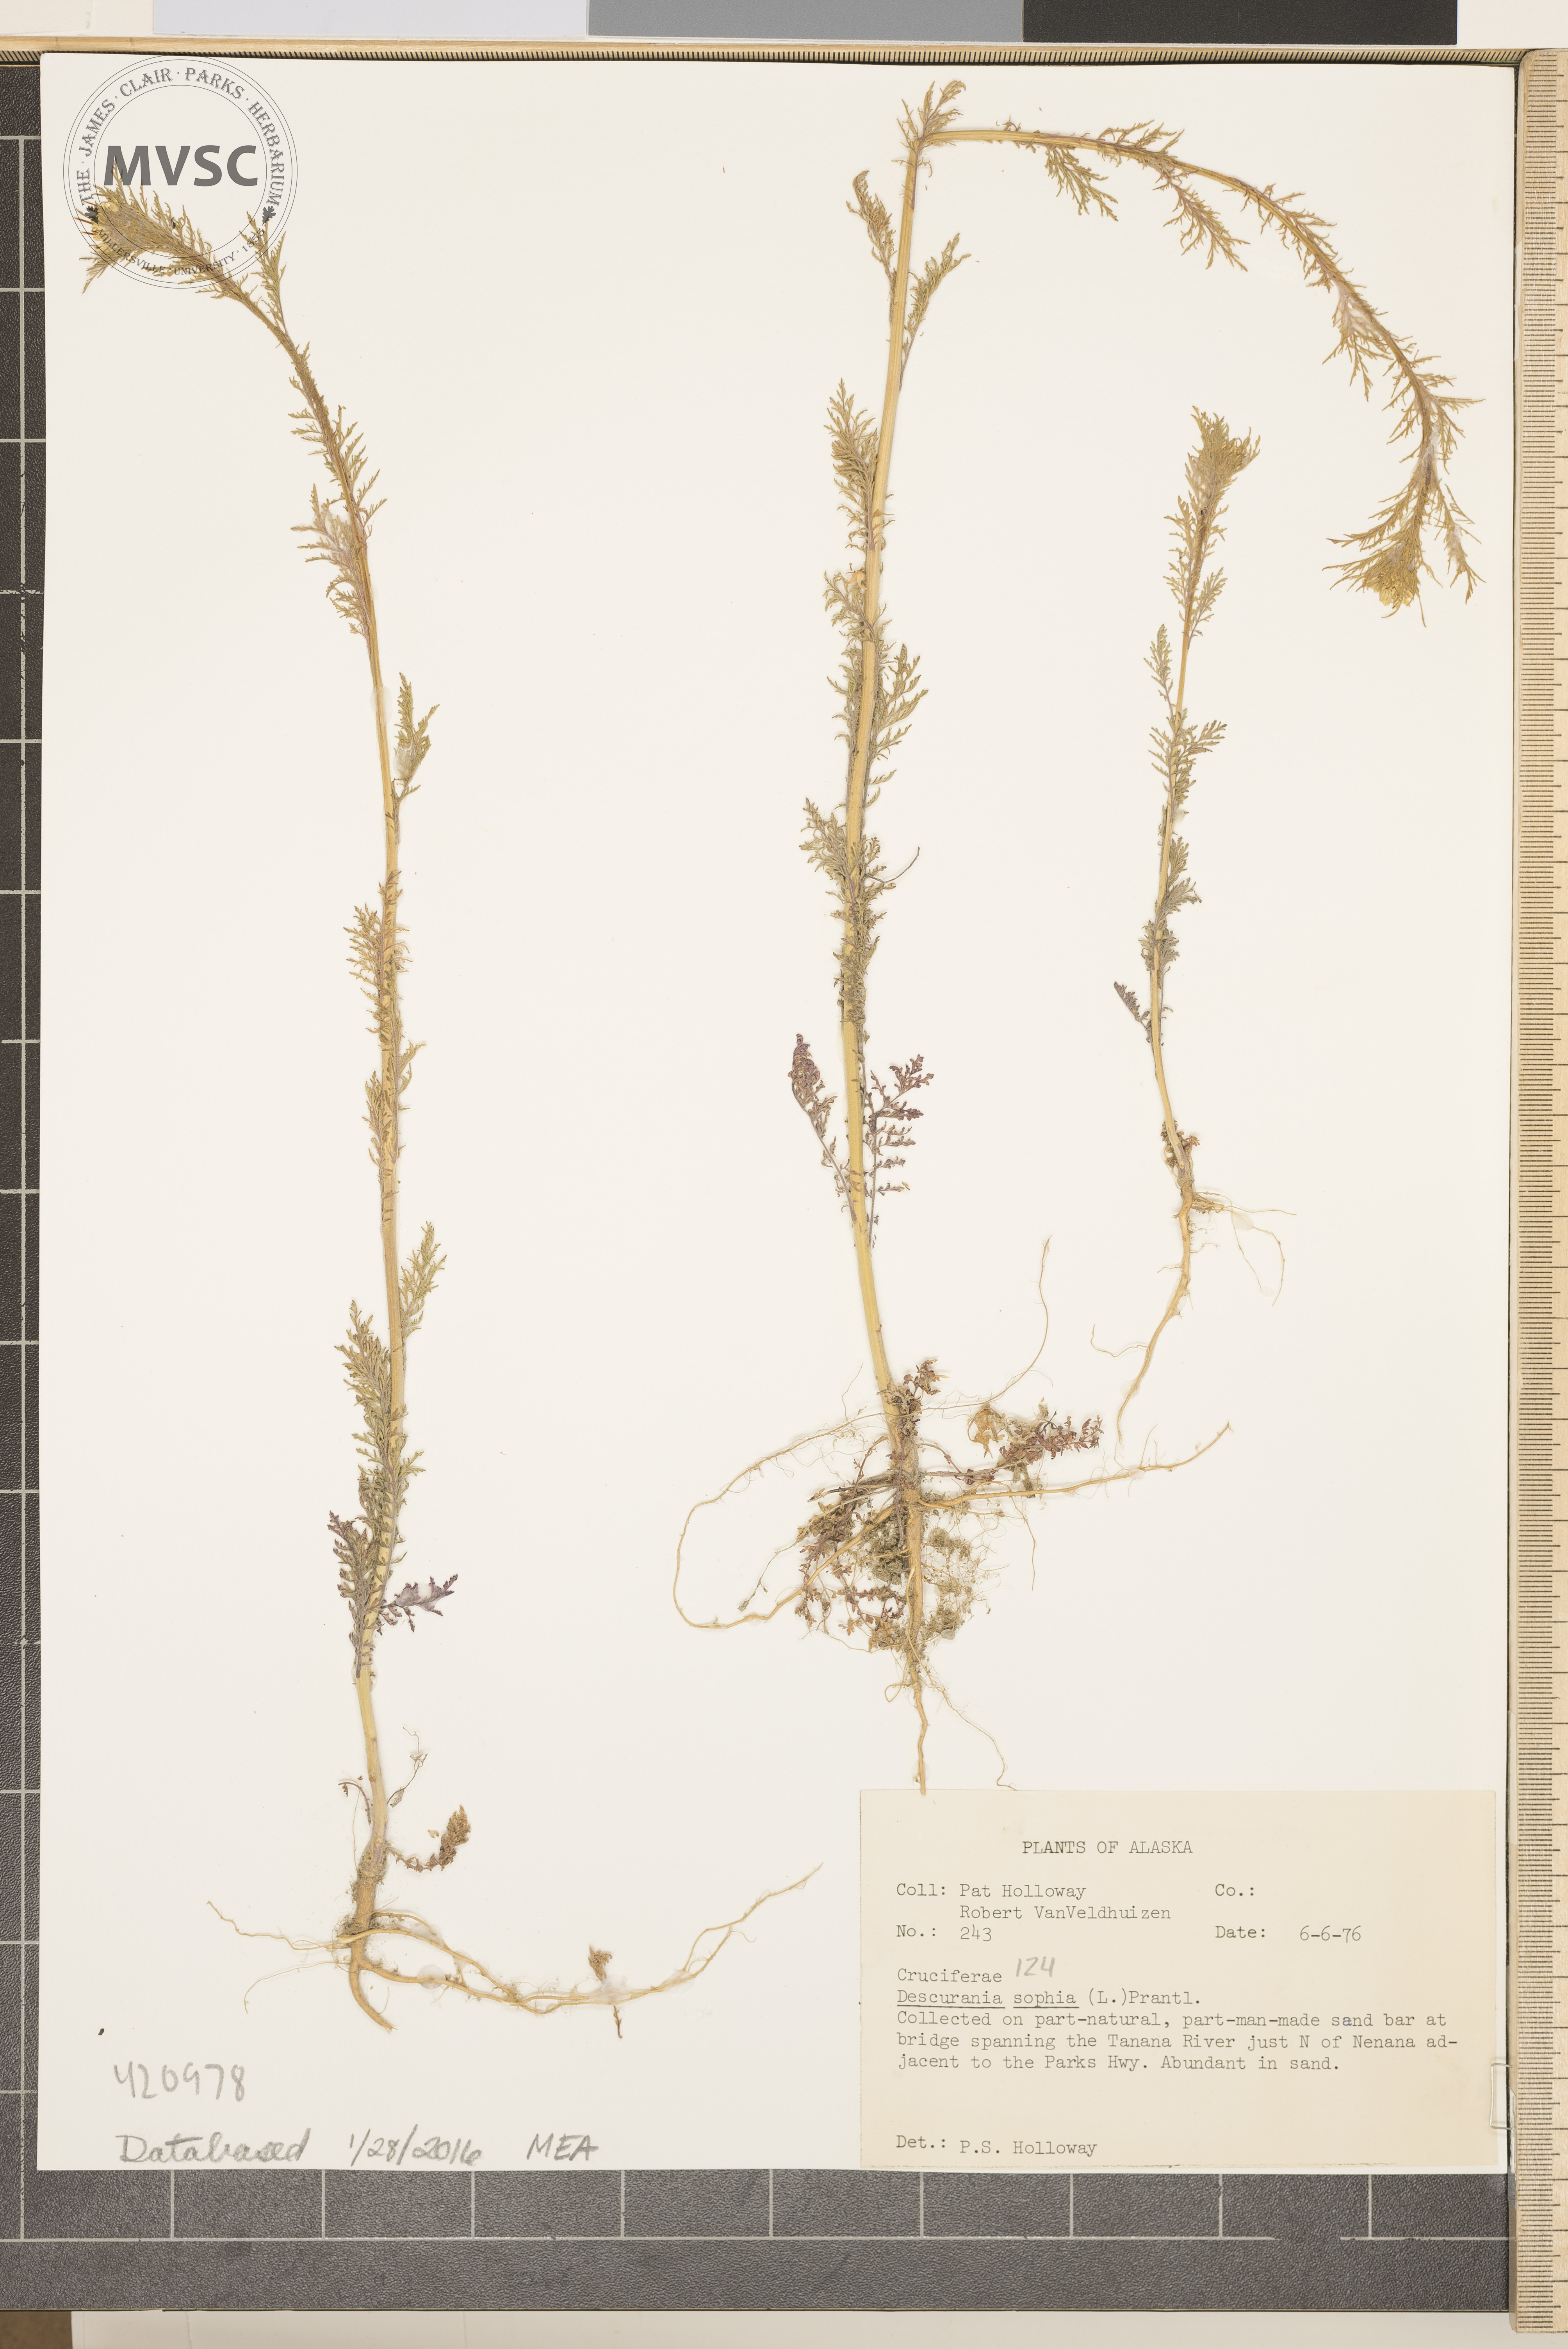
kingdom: Plantae
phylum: Tracheophyta
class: Magnoliopsida
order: Brassicales
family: Brassicaceae
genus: Descurainia
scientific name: Descurainia sophia
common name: Flixweed
